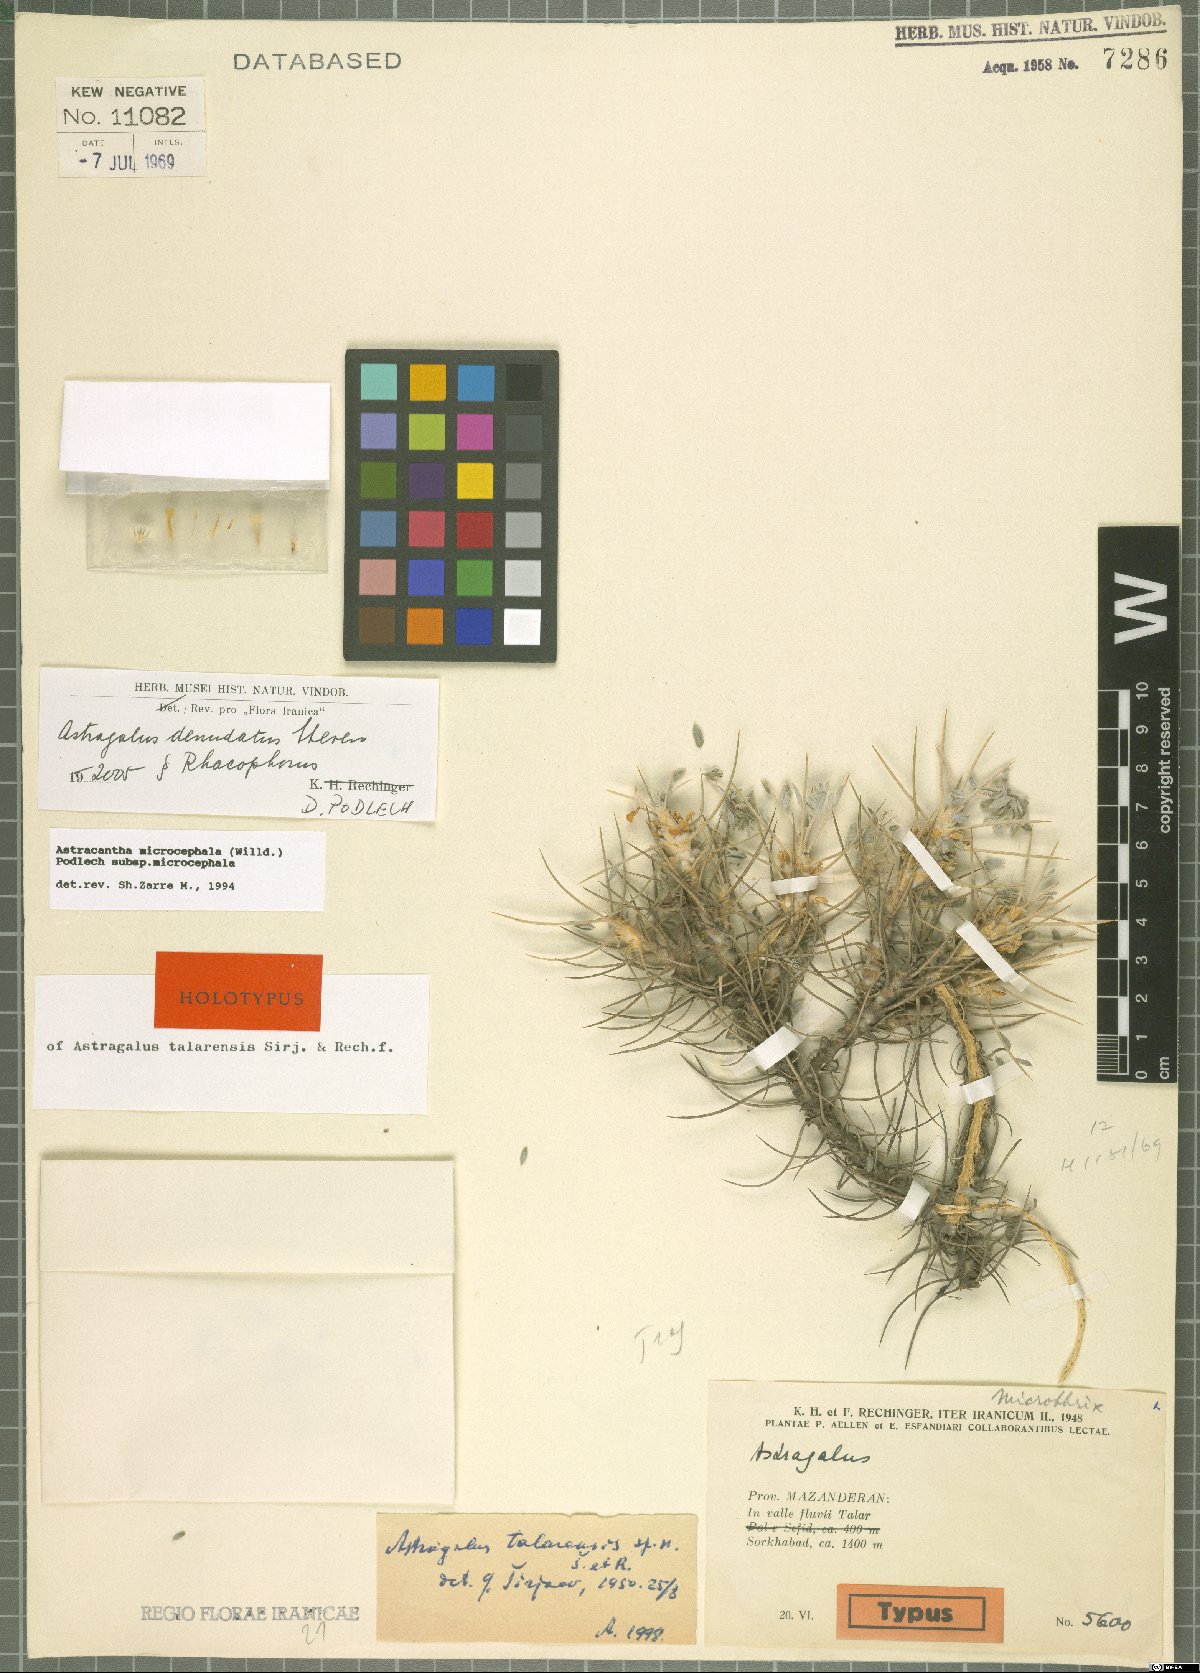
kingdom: Plantae
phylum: Tracheophyta
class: Magnoliopsida
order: Fabales
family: Fabaceae
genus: Astragalus
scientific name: Astragalus denudatus
